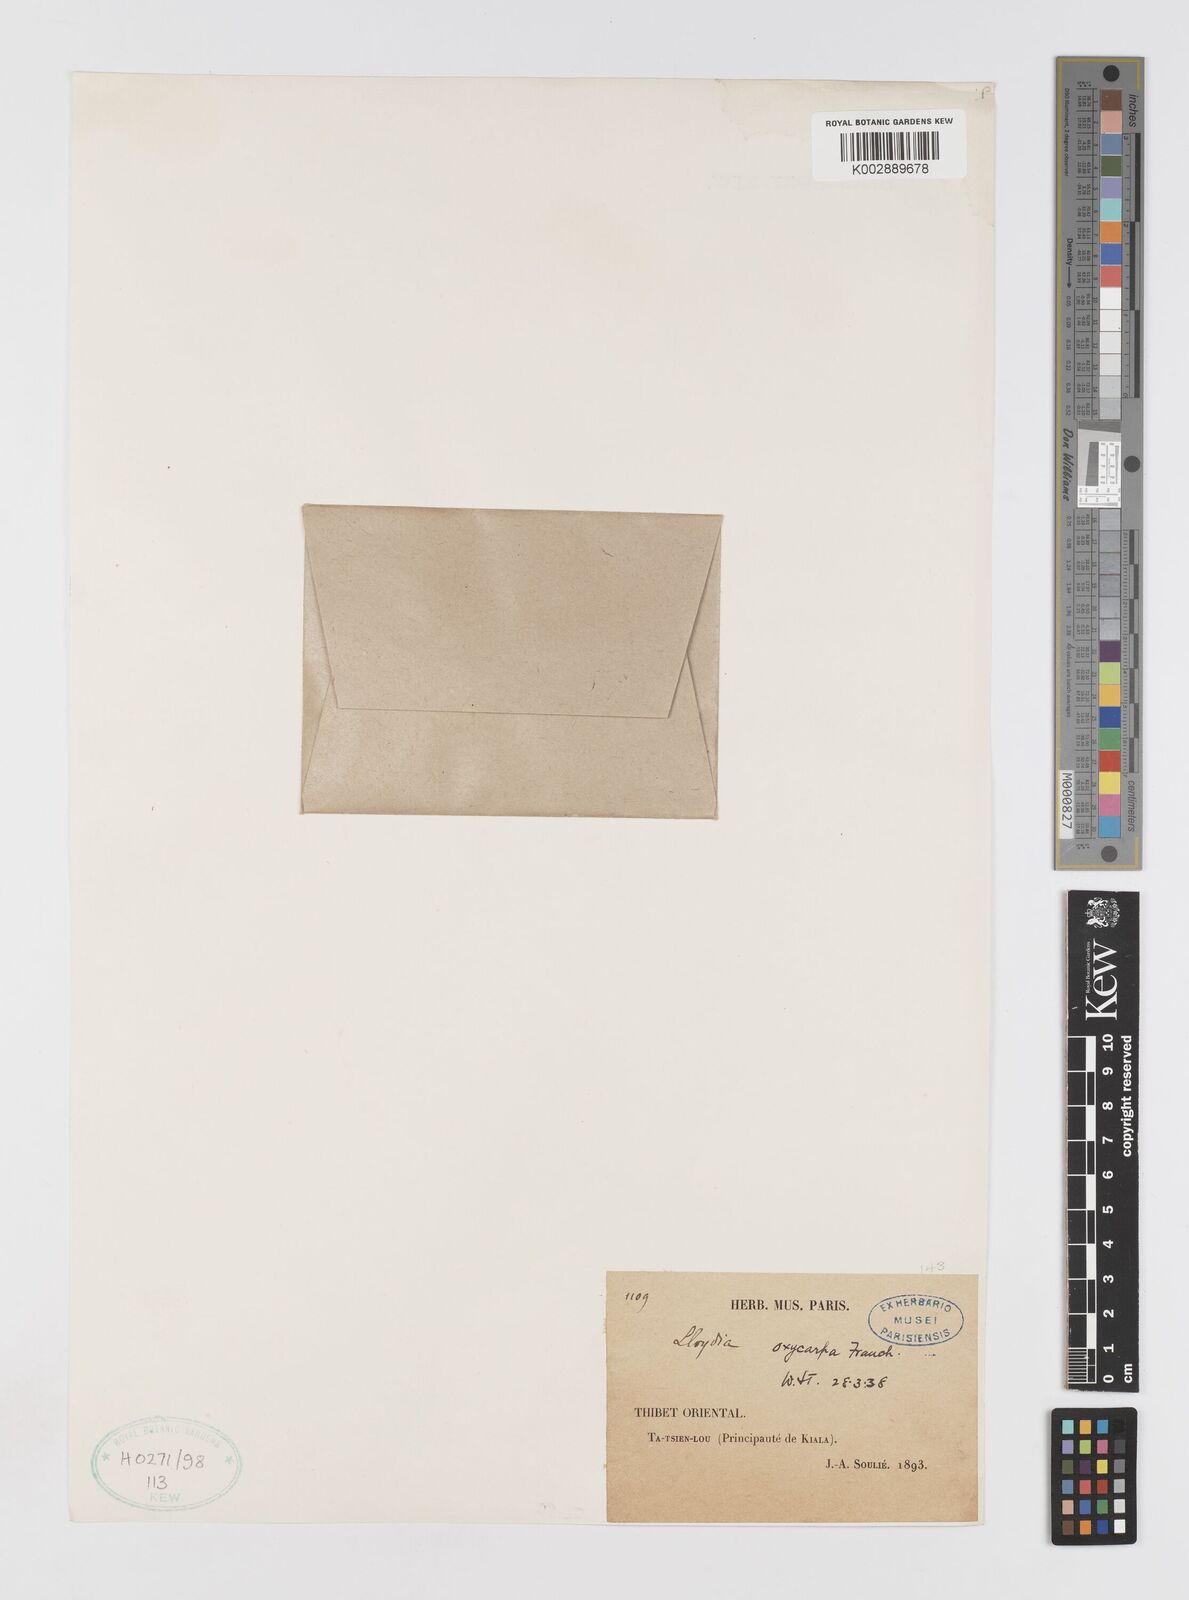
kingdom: Plantae
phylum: Tracheophyta
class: Liliopsida
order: Liliales
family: Liliaceae
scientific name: Liliaceae
